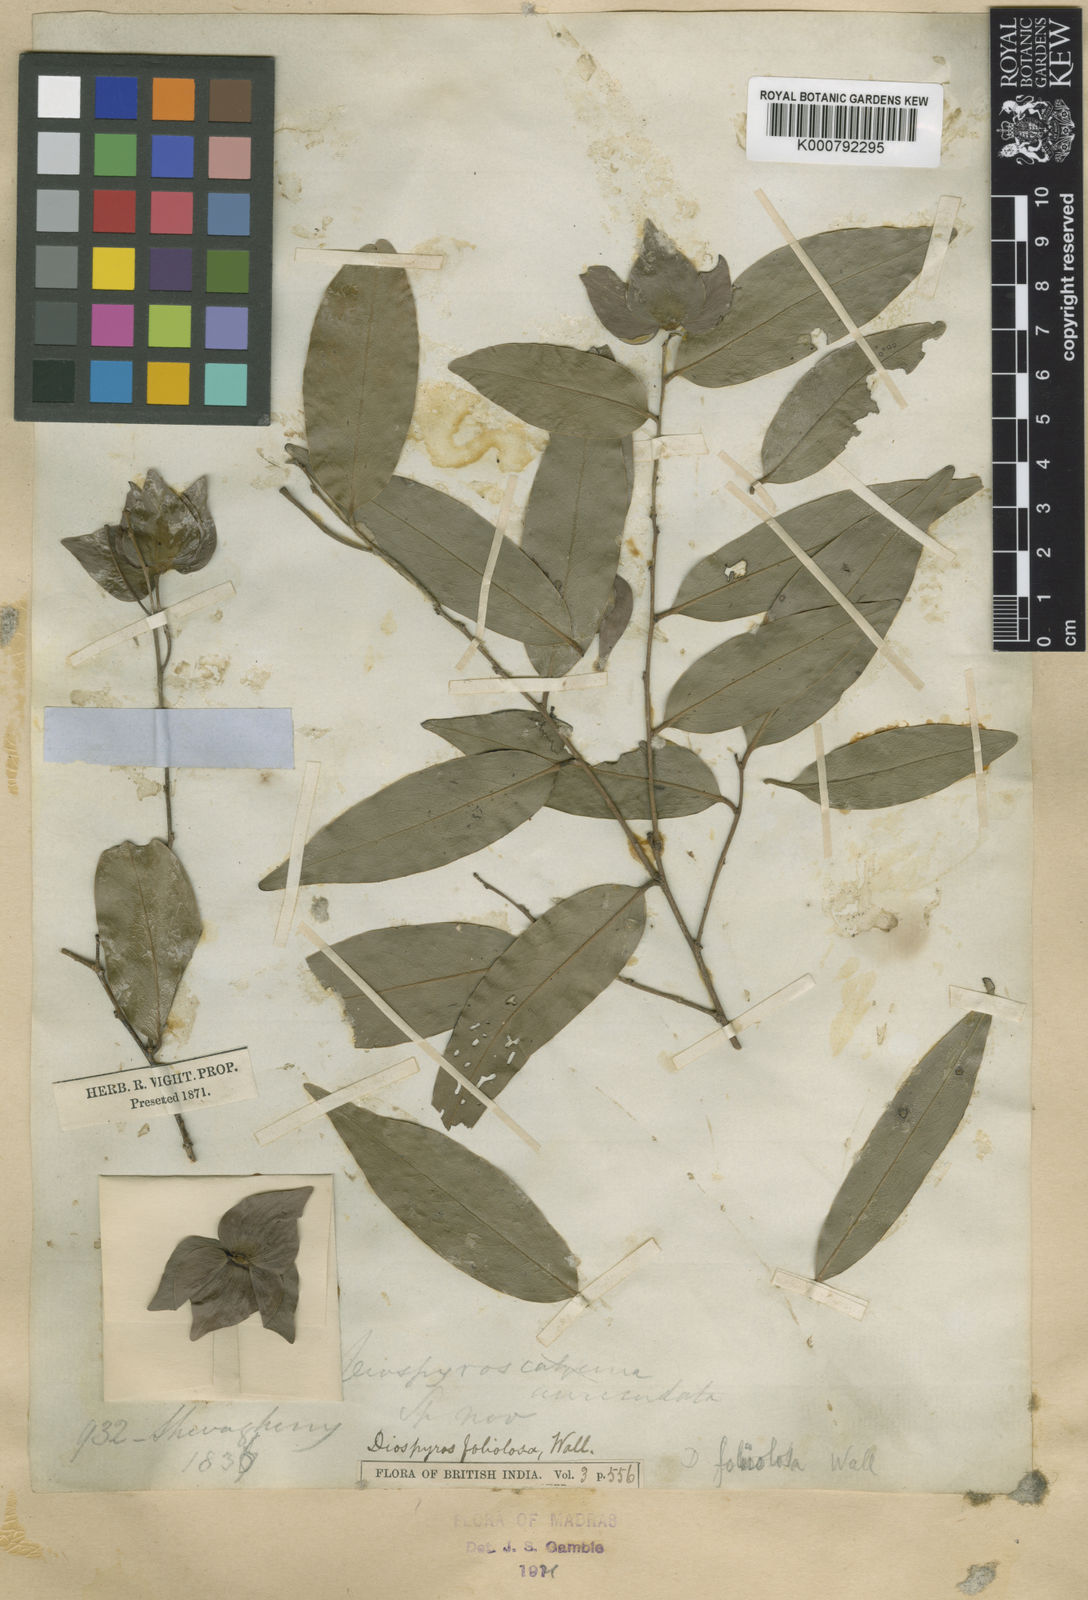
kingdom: Plantae
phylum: Tracheophyta
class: Magnoliopsida
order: Ericales
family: Ebenaceae
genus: Diospyros
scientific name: Diospyros toposia
